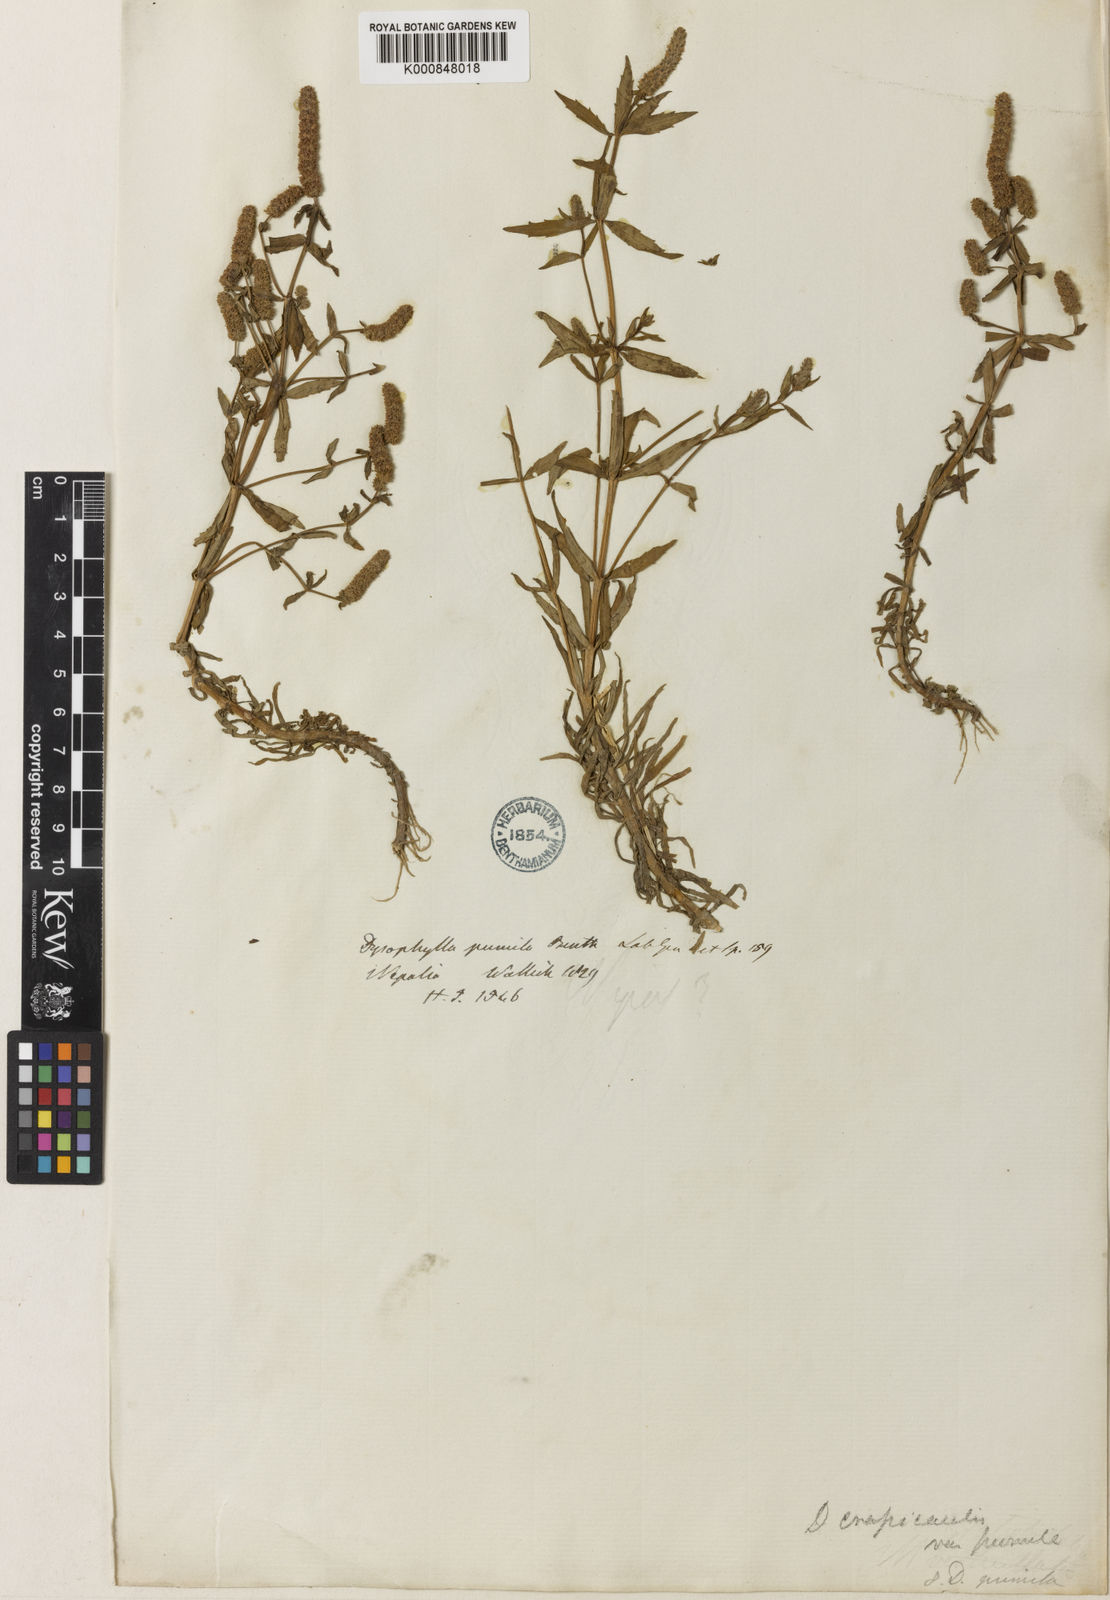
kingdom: Plantae
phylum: Tracheophyta
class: Magnoliopsida
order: Lamiales
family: Lamiaceae
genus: Pogostemon
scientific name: Pogostemon crassicaulis
